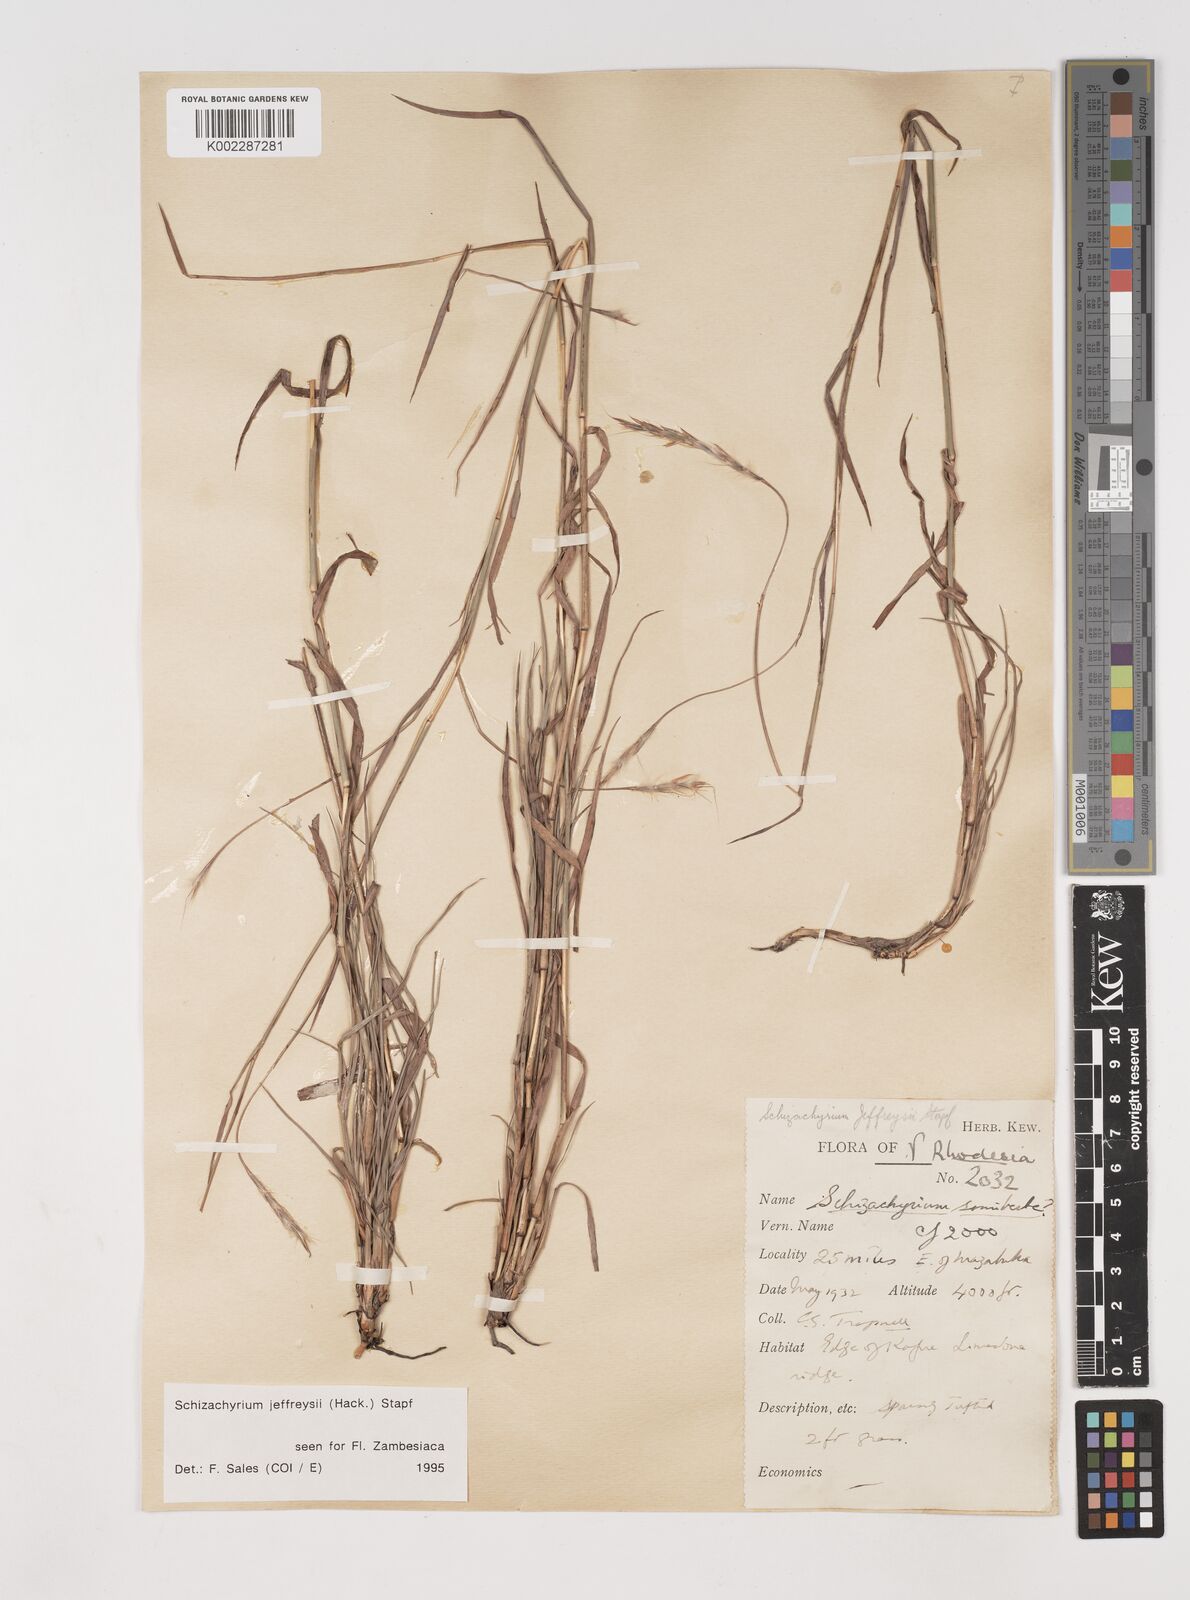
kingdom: Plantae
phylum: Tracheophyta
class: Liliopsida
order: Poales
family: Poaceae
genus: Schizachyrium
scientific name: Schizachyrium jeffreysii
